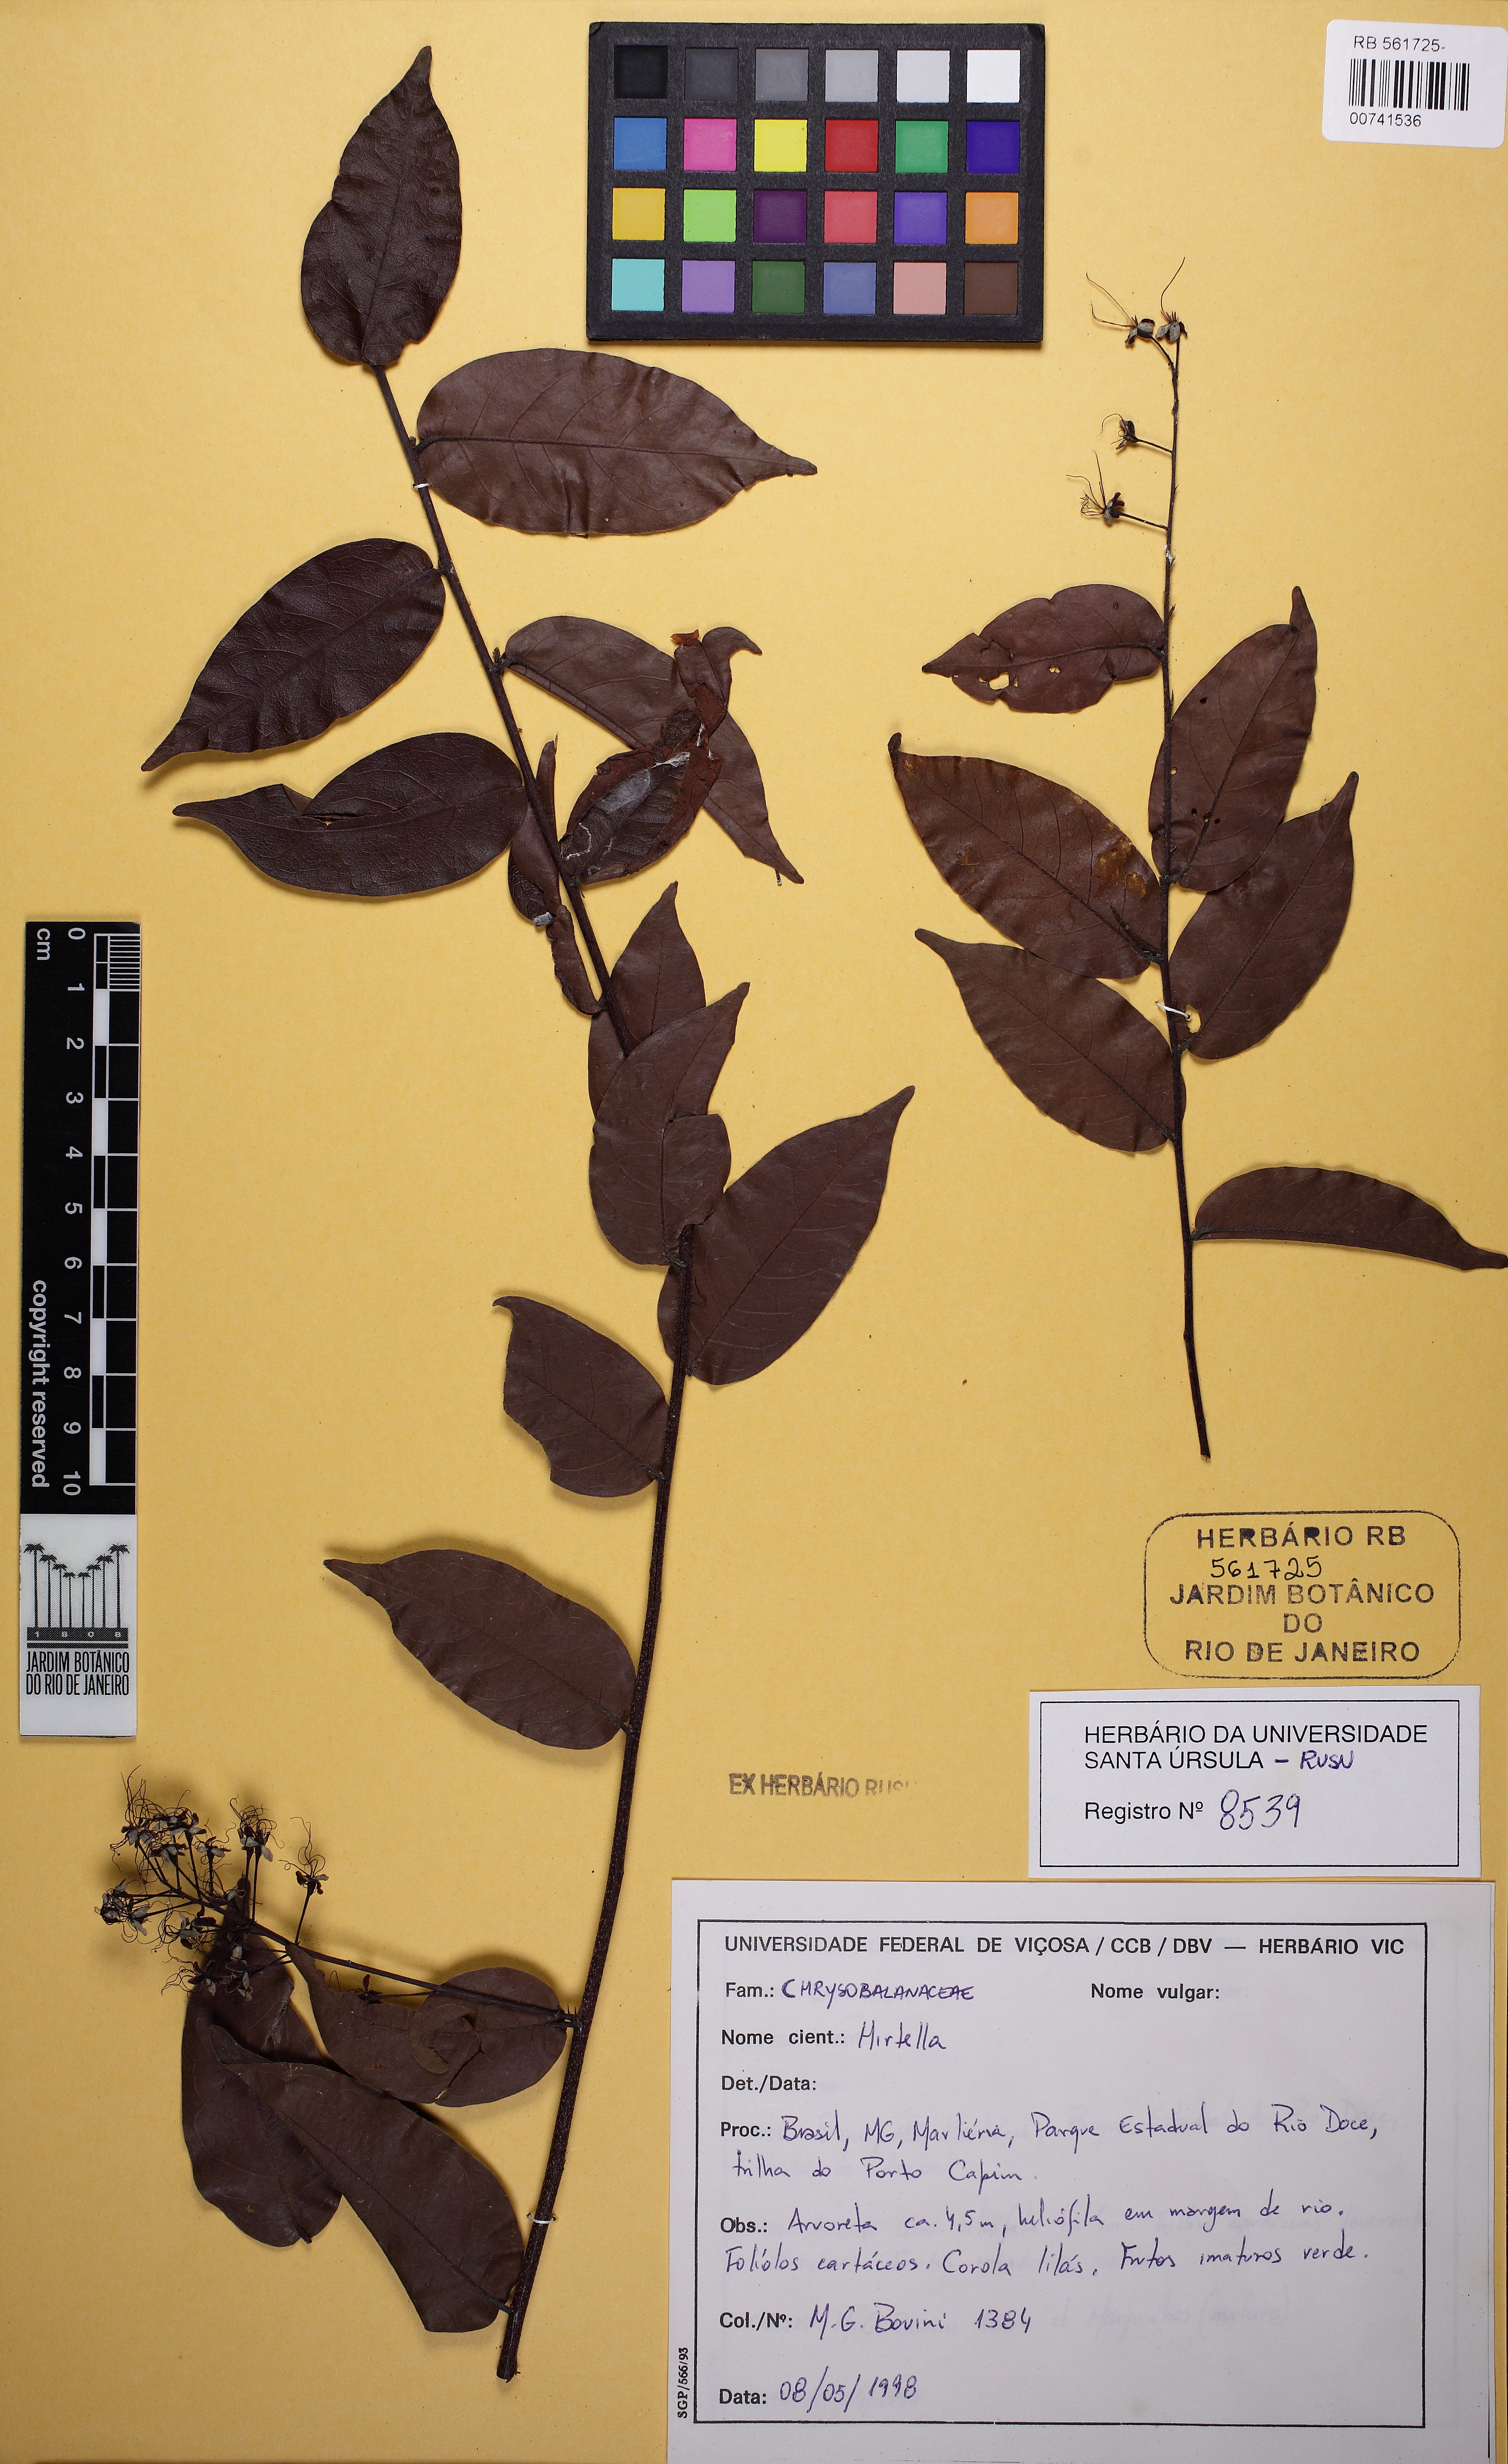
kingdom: Plantae
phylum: Tracheophyta
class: Magnoliopsida
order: Malpighiales
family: Chrysobalanaceae
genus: Hirtella
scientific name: Hirtella gracilipes
